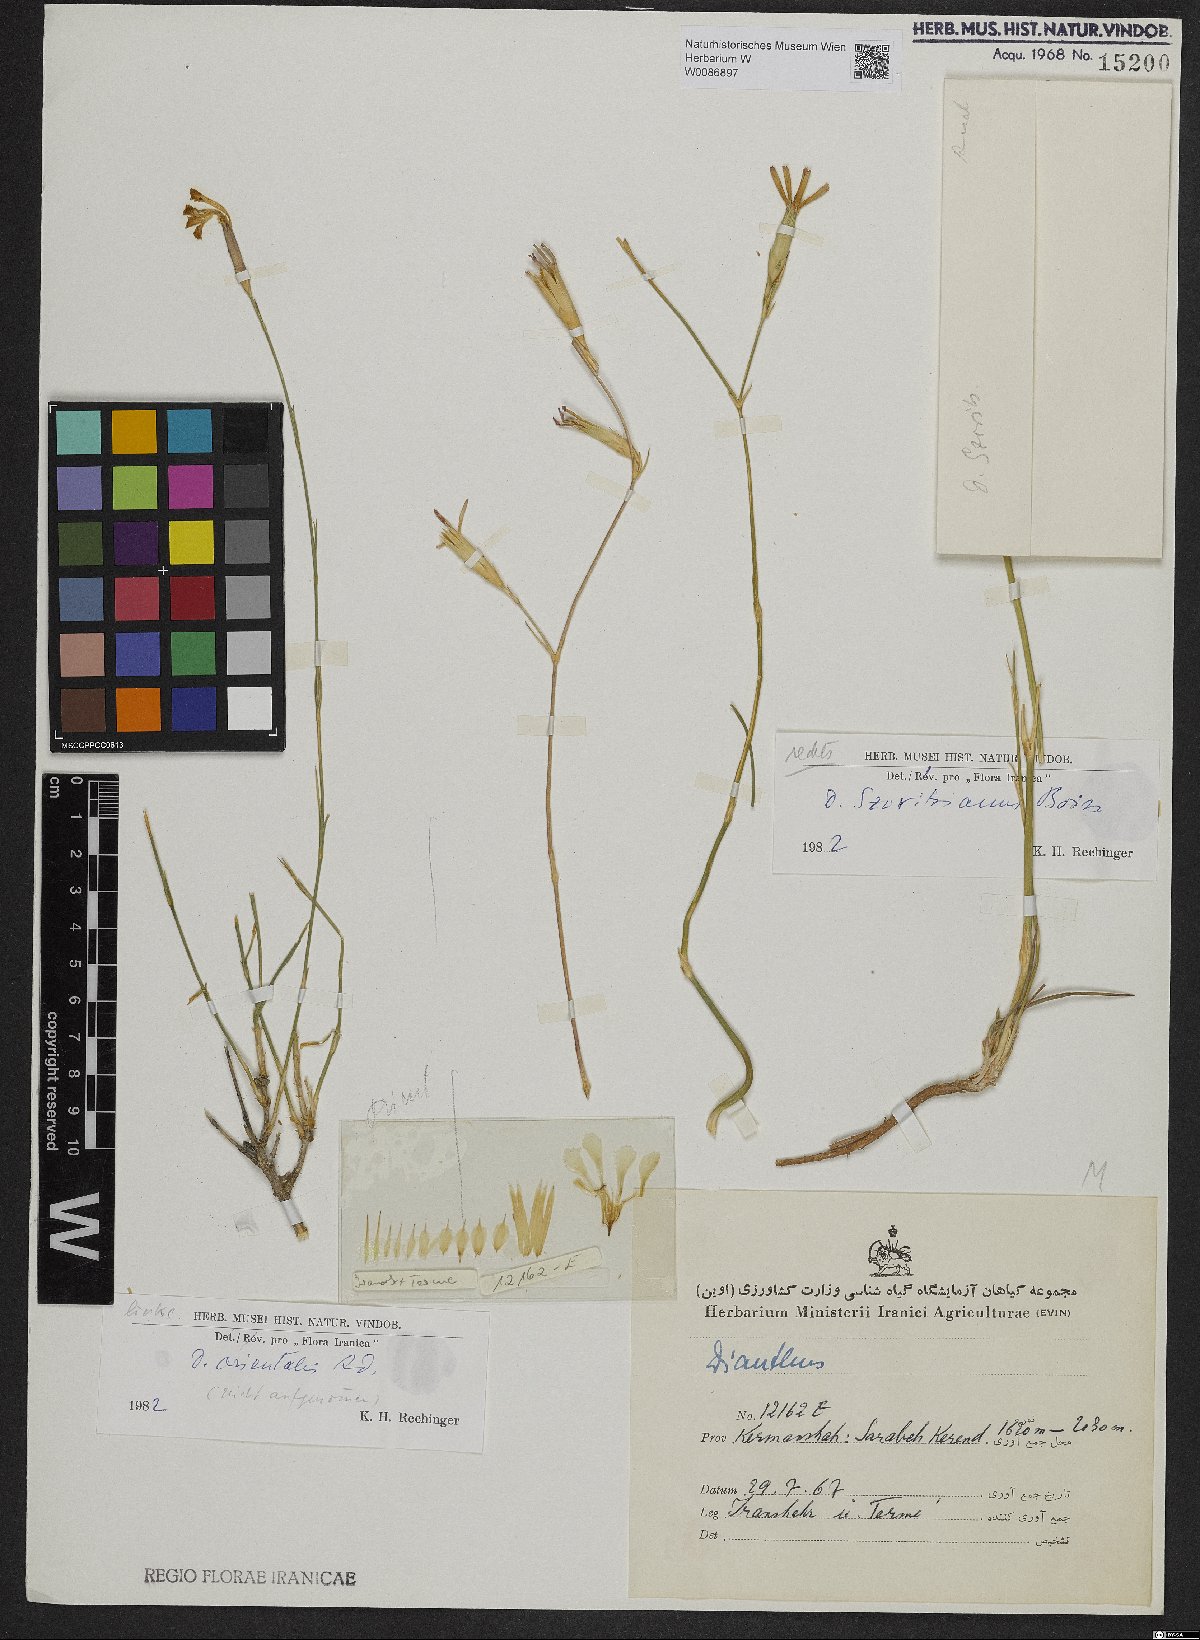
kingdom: Plantae
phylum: Tracheophyta
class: Magnoliopsida
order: Caryophyllales
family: Caryophyllaceae
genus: Dianthus
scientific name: Dianthus szowitsianus
